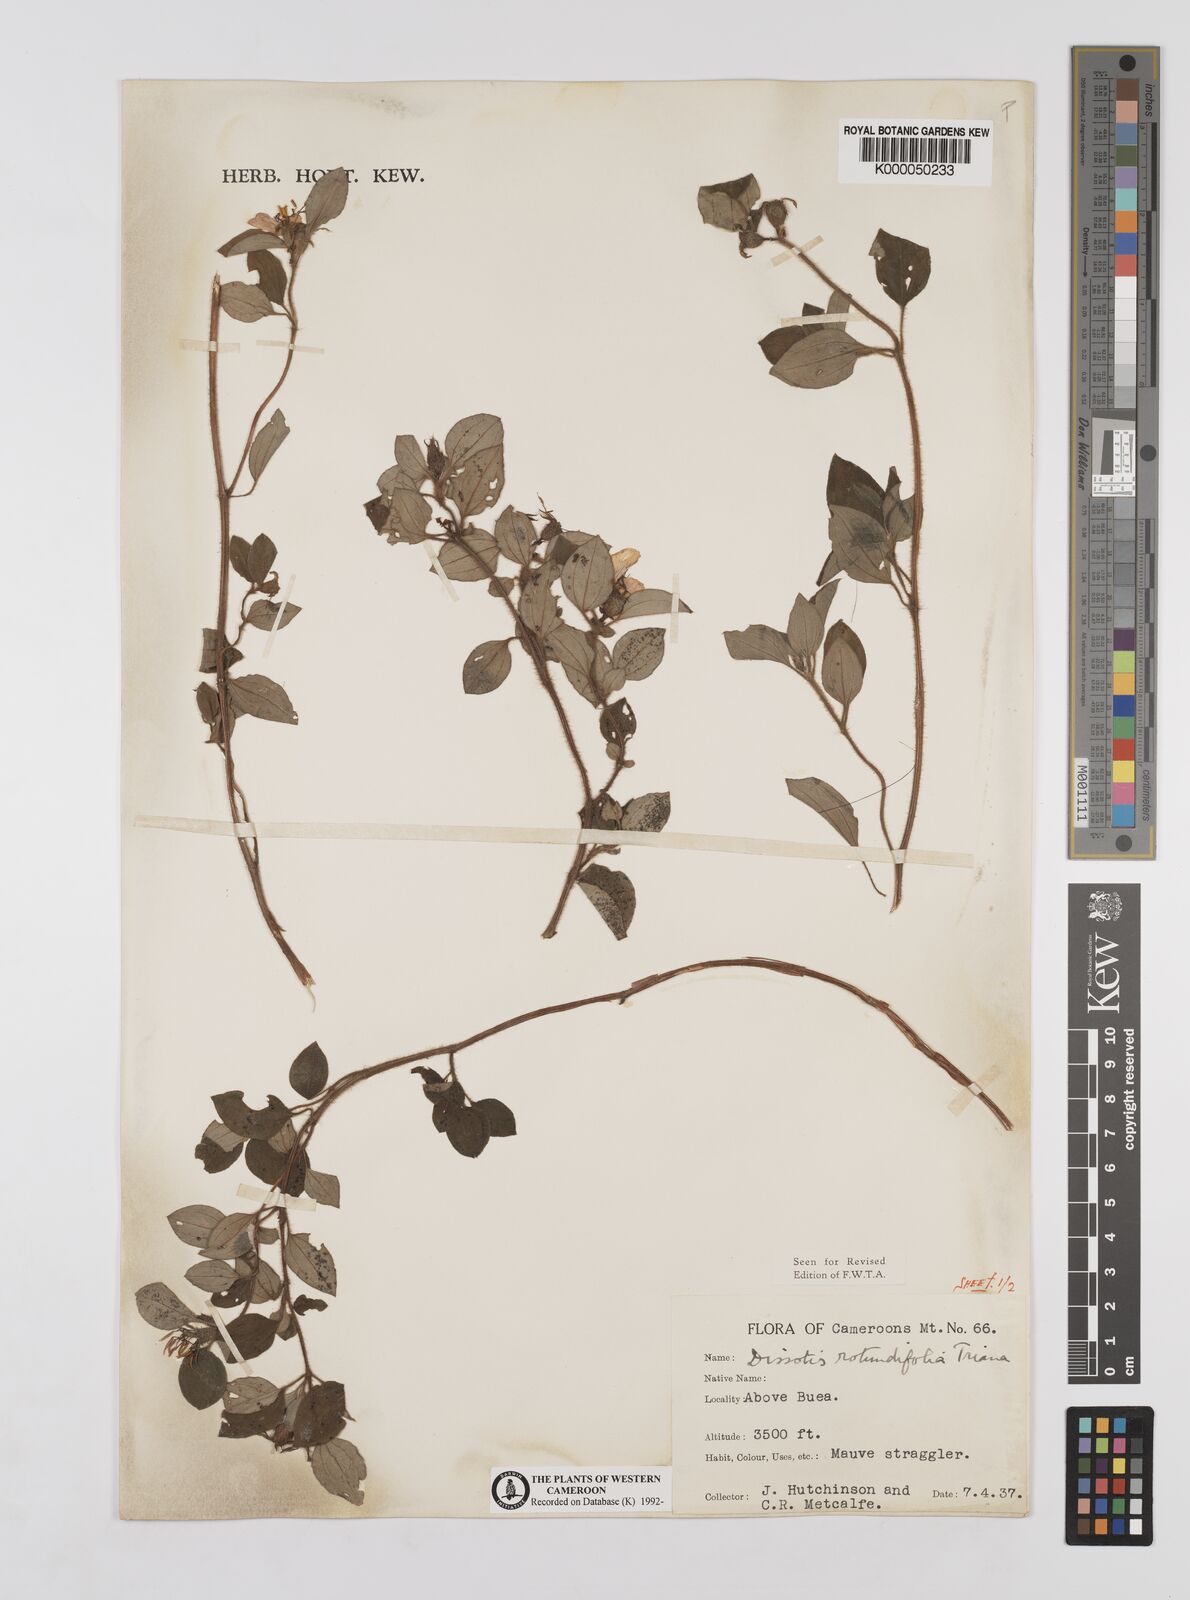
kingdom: Plantae
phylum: Tracheophyta
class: Magnoliopsida
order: Myrtales
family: Melastomataceae
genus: Heterotis
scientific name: Heterotis rotundifolia
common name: Pinklady
